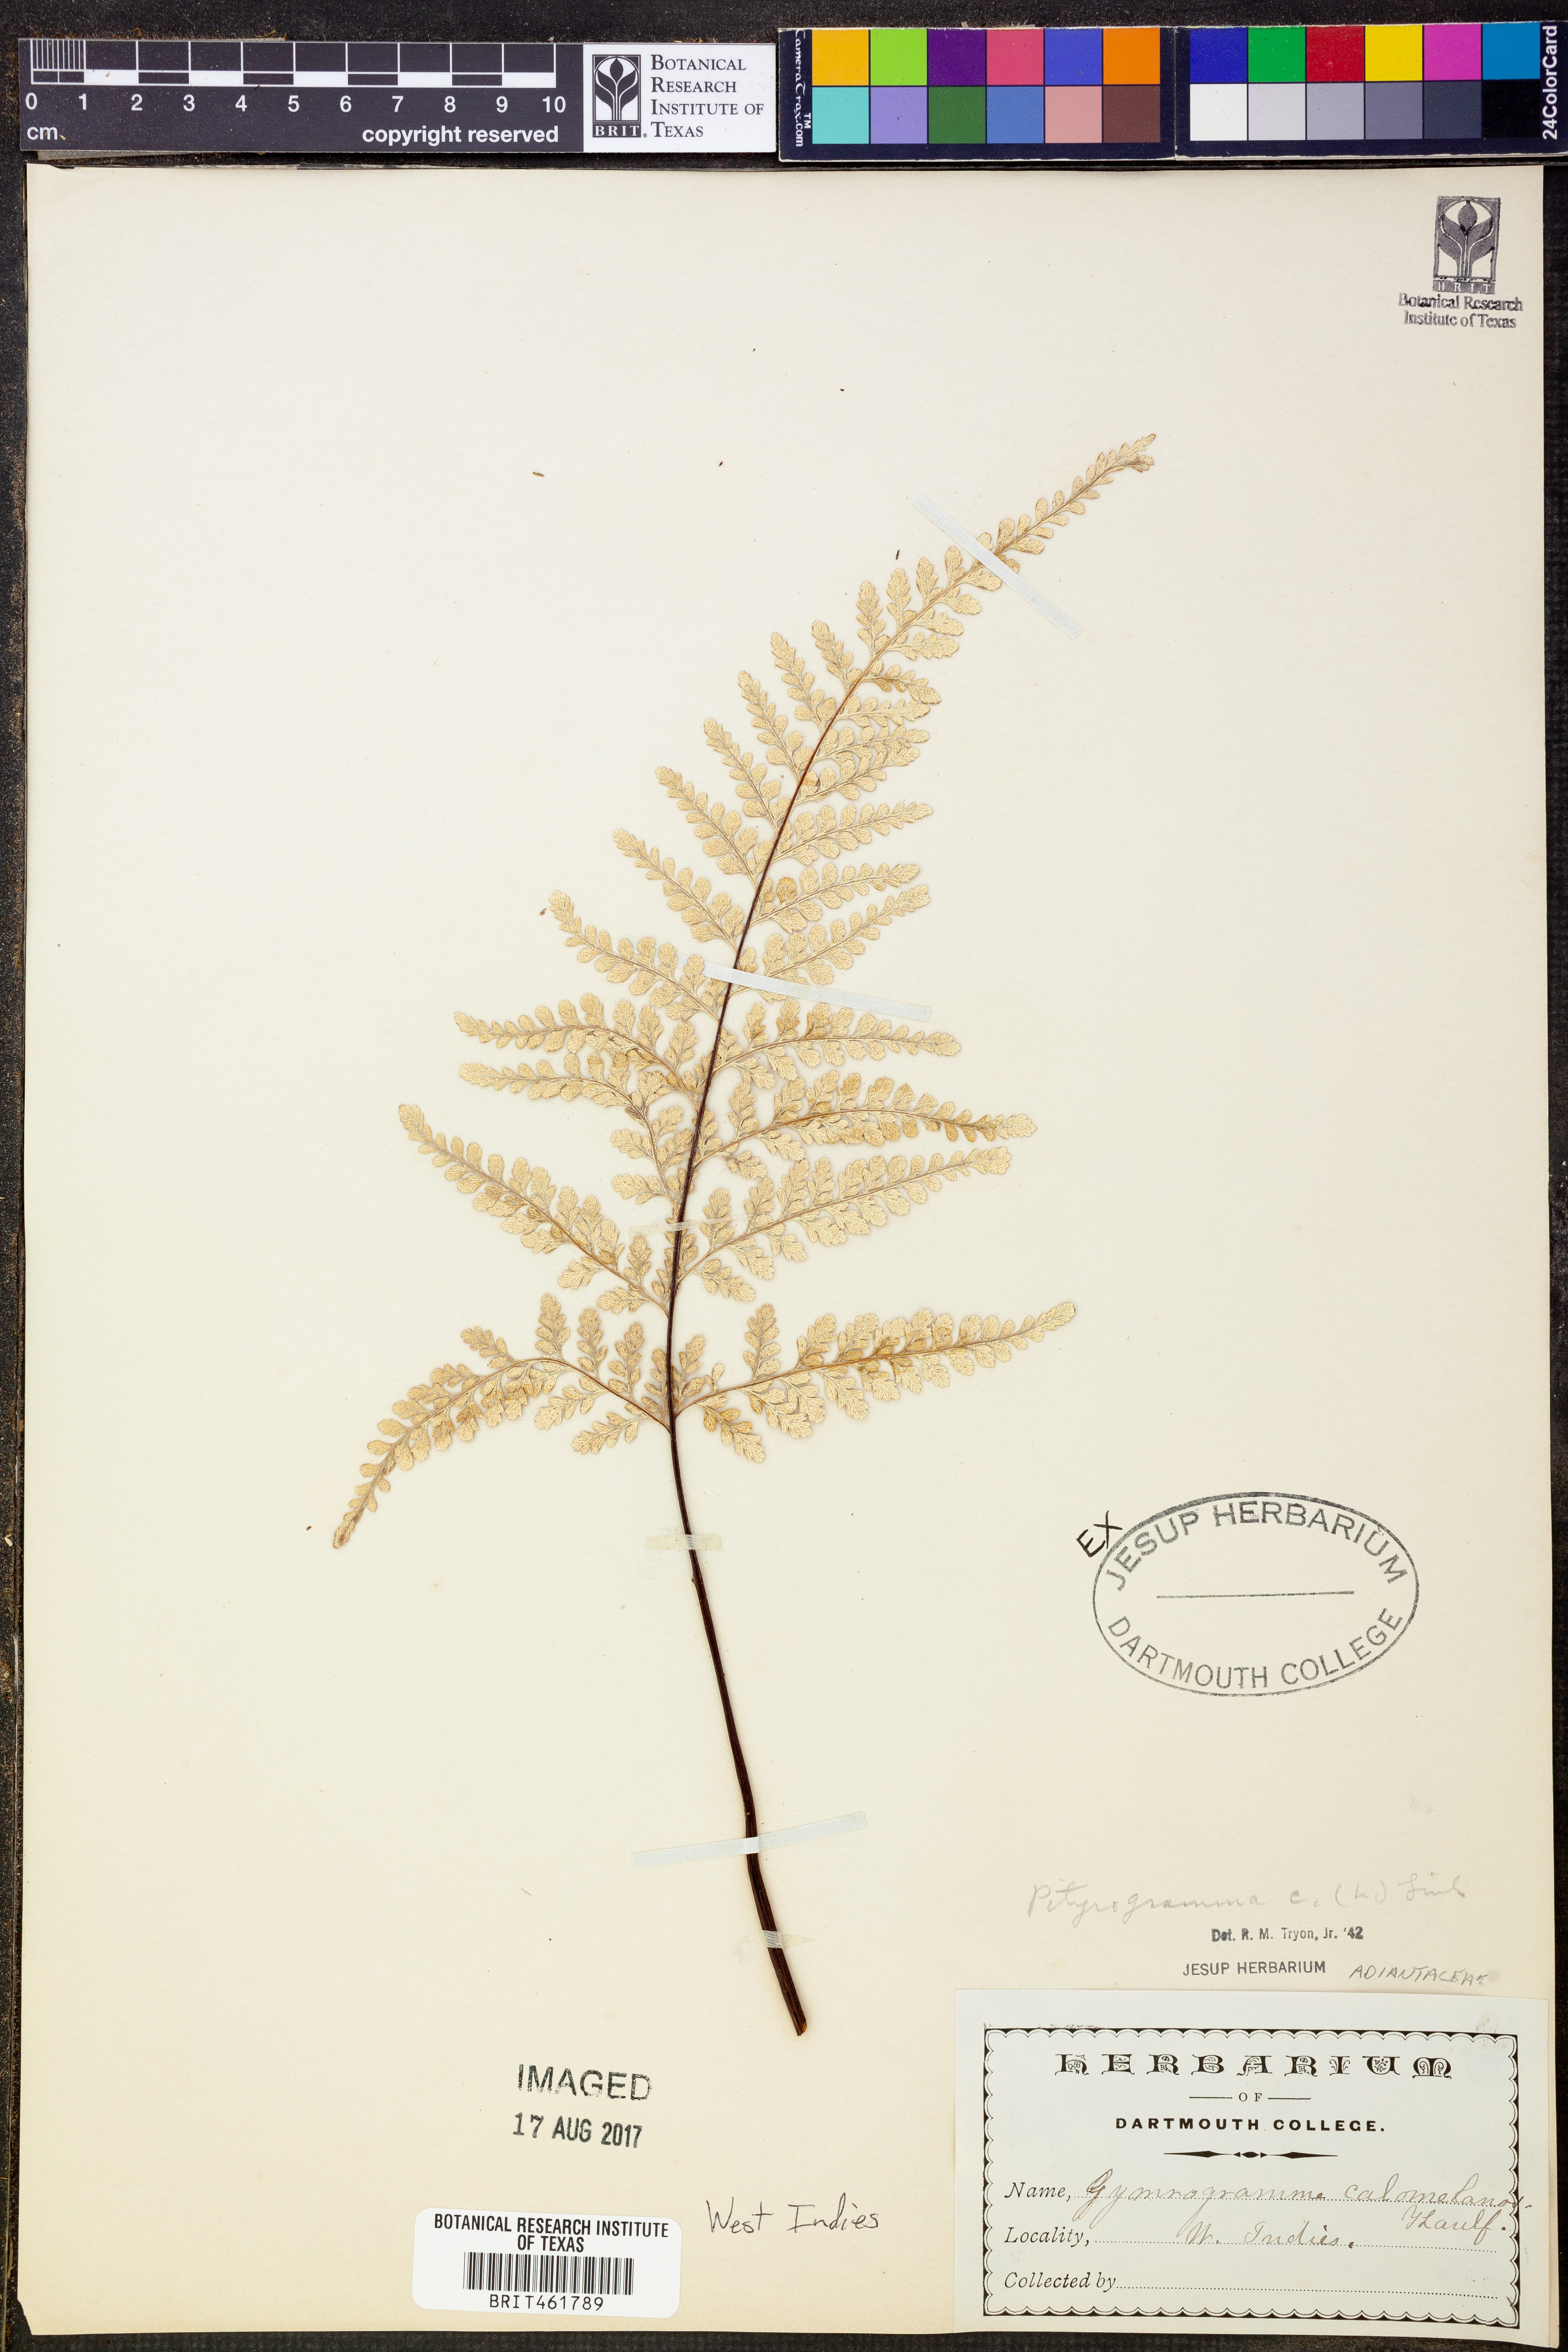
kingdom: Plantae
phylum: Tracheophyta
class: Polypodiopsida
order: Polypodiales
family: Pteridaceae
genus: Pityrogramma
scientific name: Pityrogramma calomelanos
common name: Dixie silverback fern
